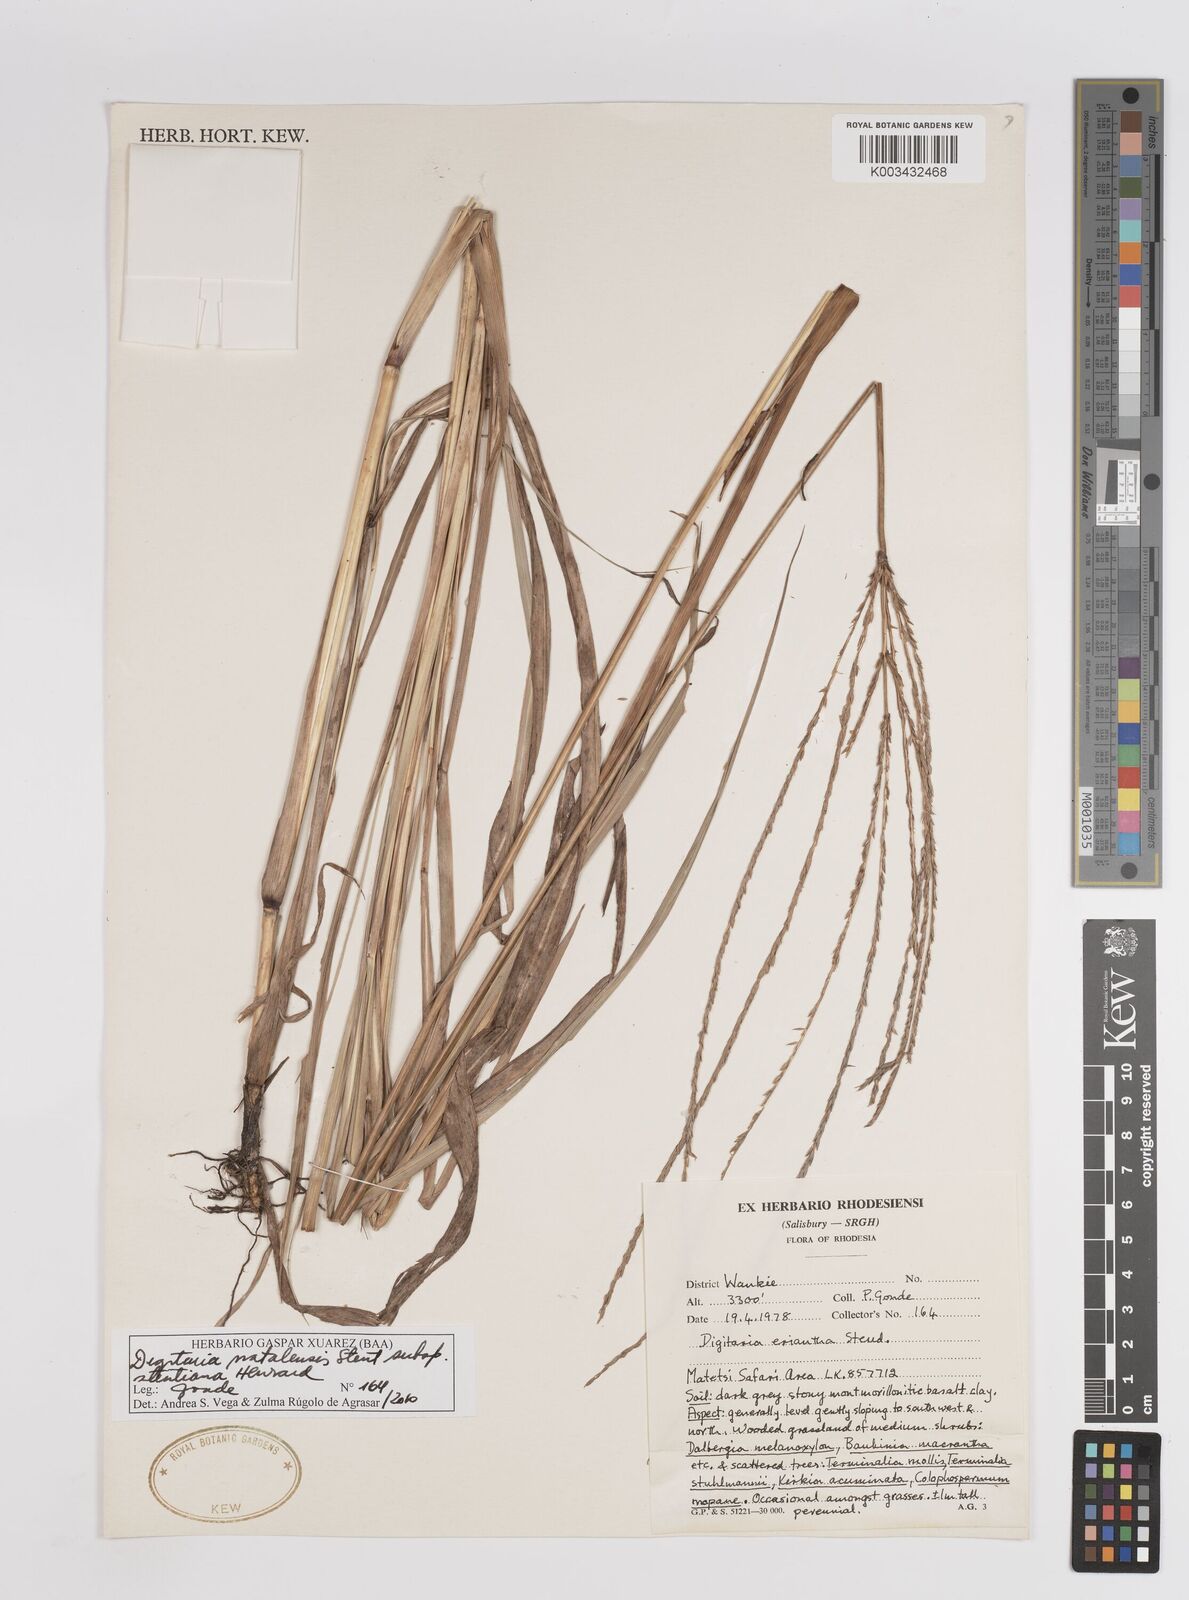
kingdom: Plantae
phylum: Tracheophyta
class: Liliopsida
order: Poales
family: Poaceae
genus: Digitaria
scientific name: Digitaria natalensis
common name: Coast finger grass
